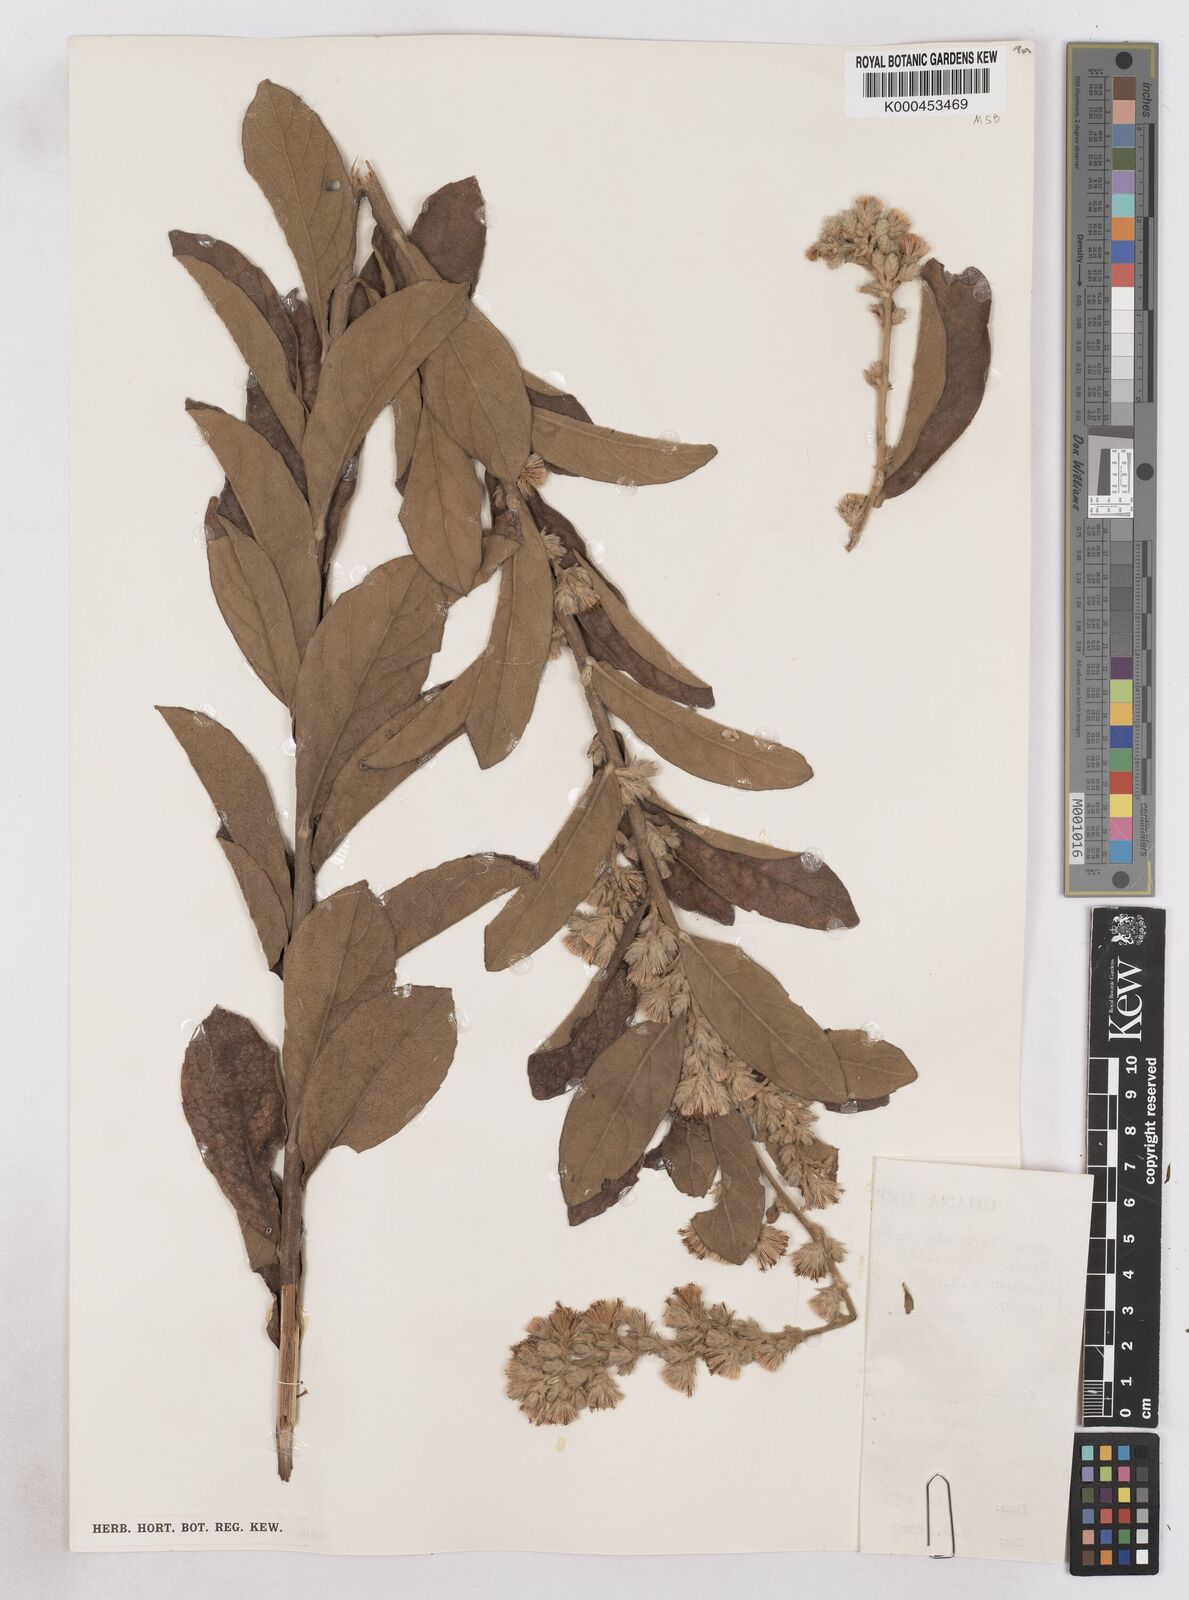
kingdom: Plantae
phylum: Tracheophyta
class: Magnoliopsida
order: Asterales
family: Asteraceae
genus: Vernoniastrum
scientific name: Vernoniastrum camporum
